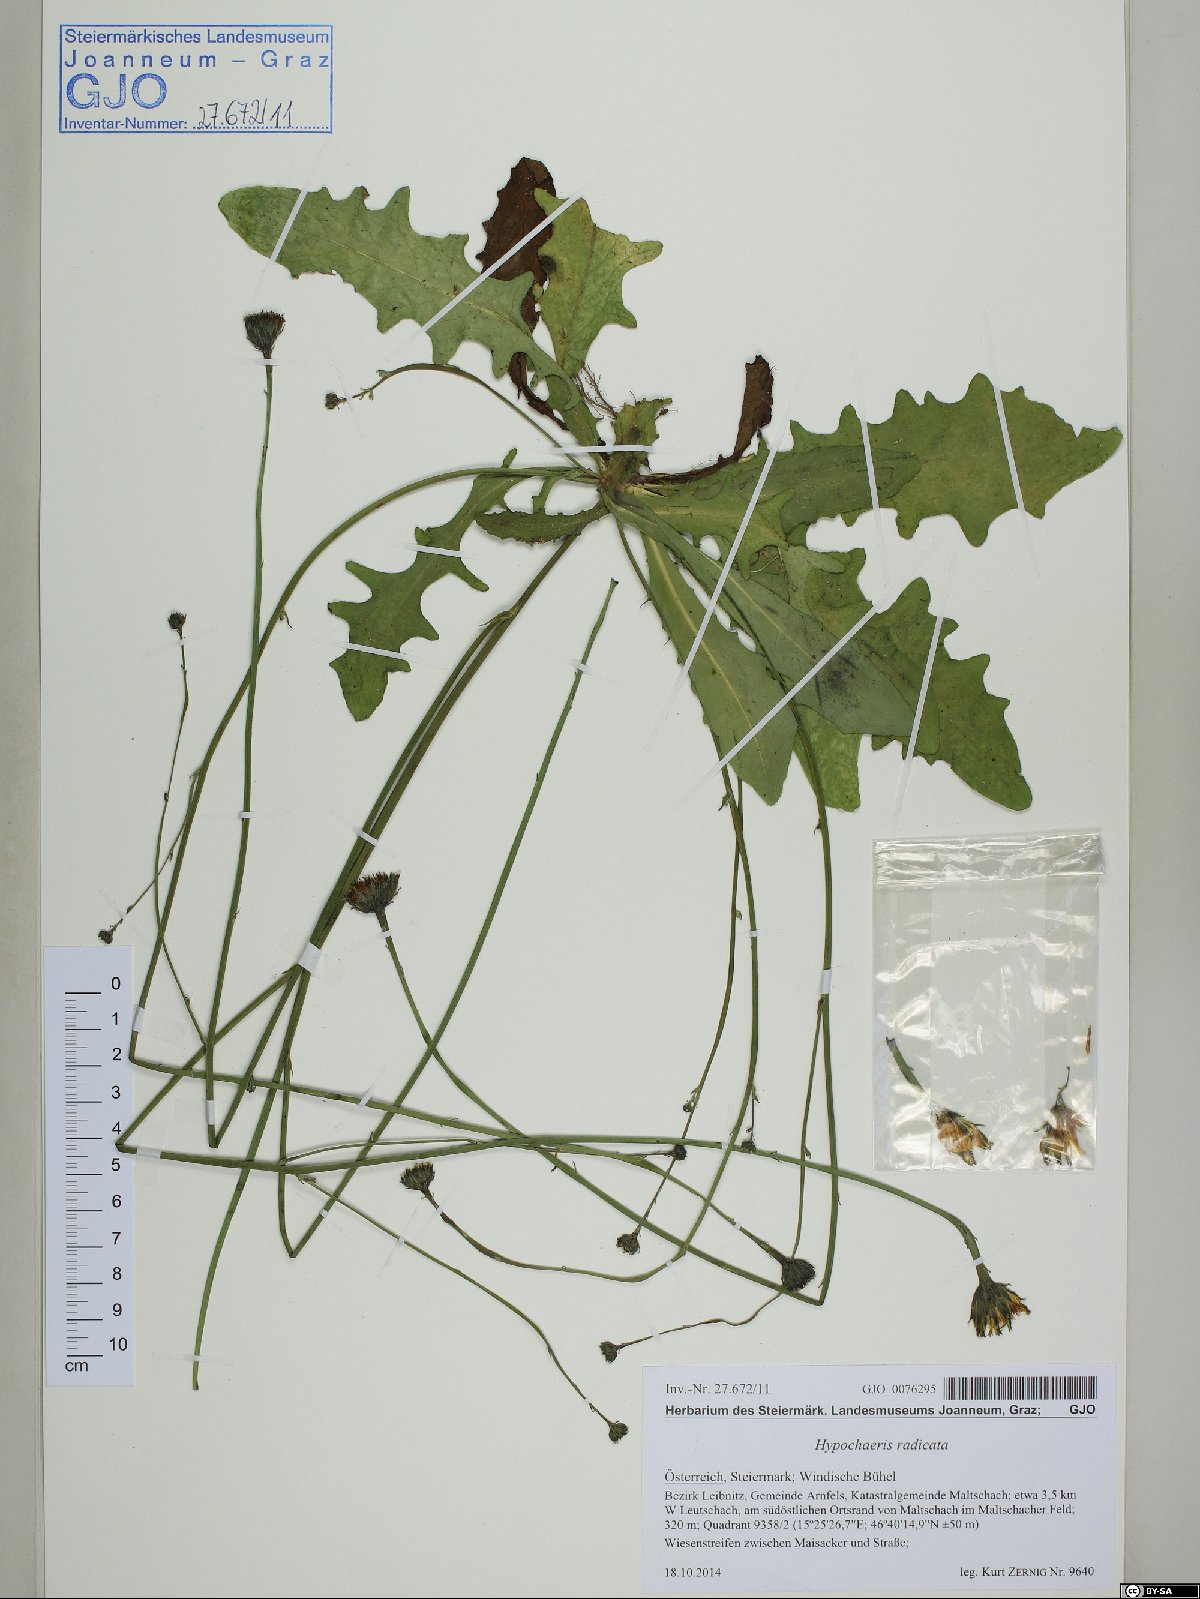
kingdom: Plantae
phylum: Tracheophyta
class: Magnoliopsida
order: Asterales
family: Asteraceae
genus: Hypochaeris
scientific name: Hypochaeris radicata
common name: Flatweed
